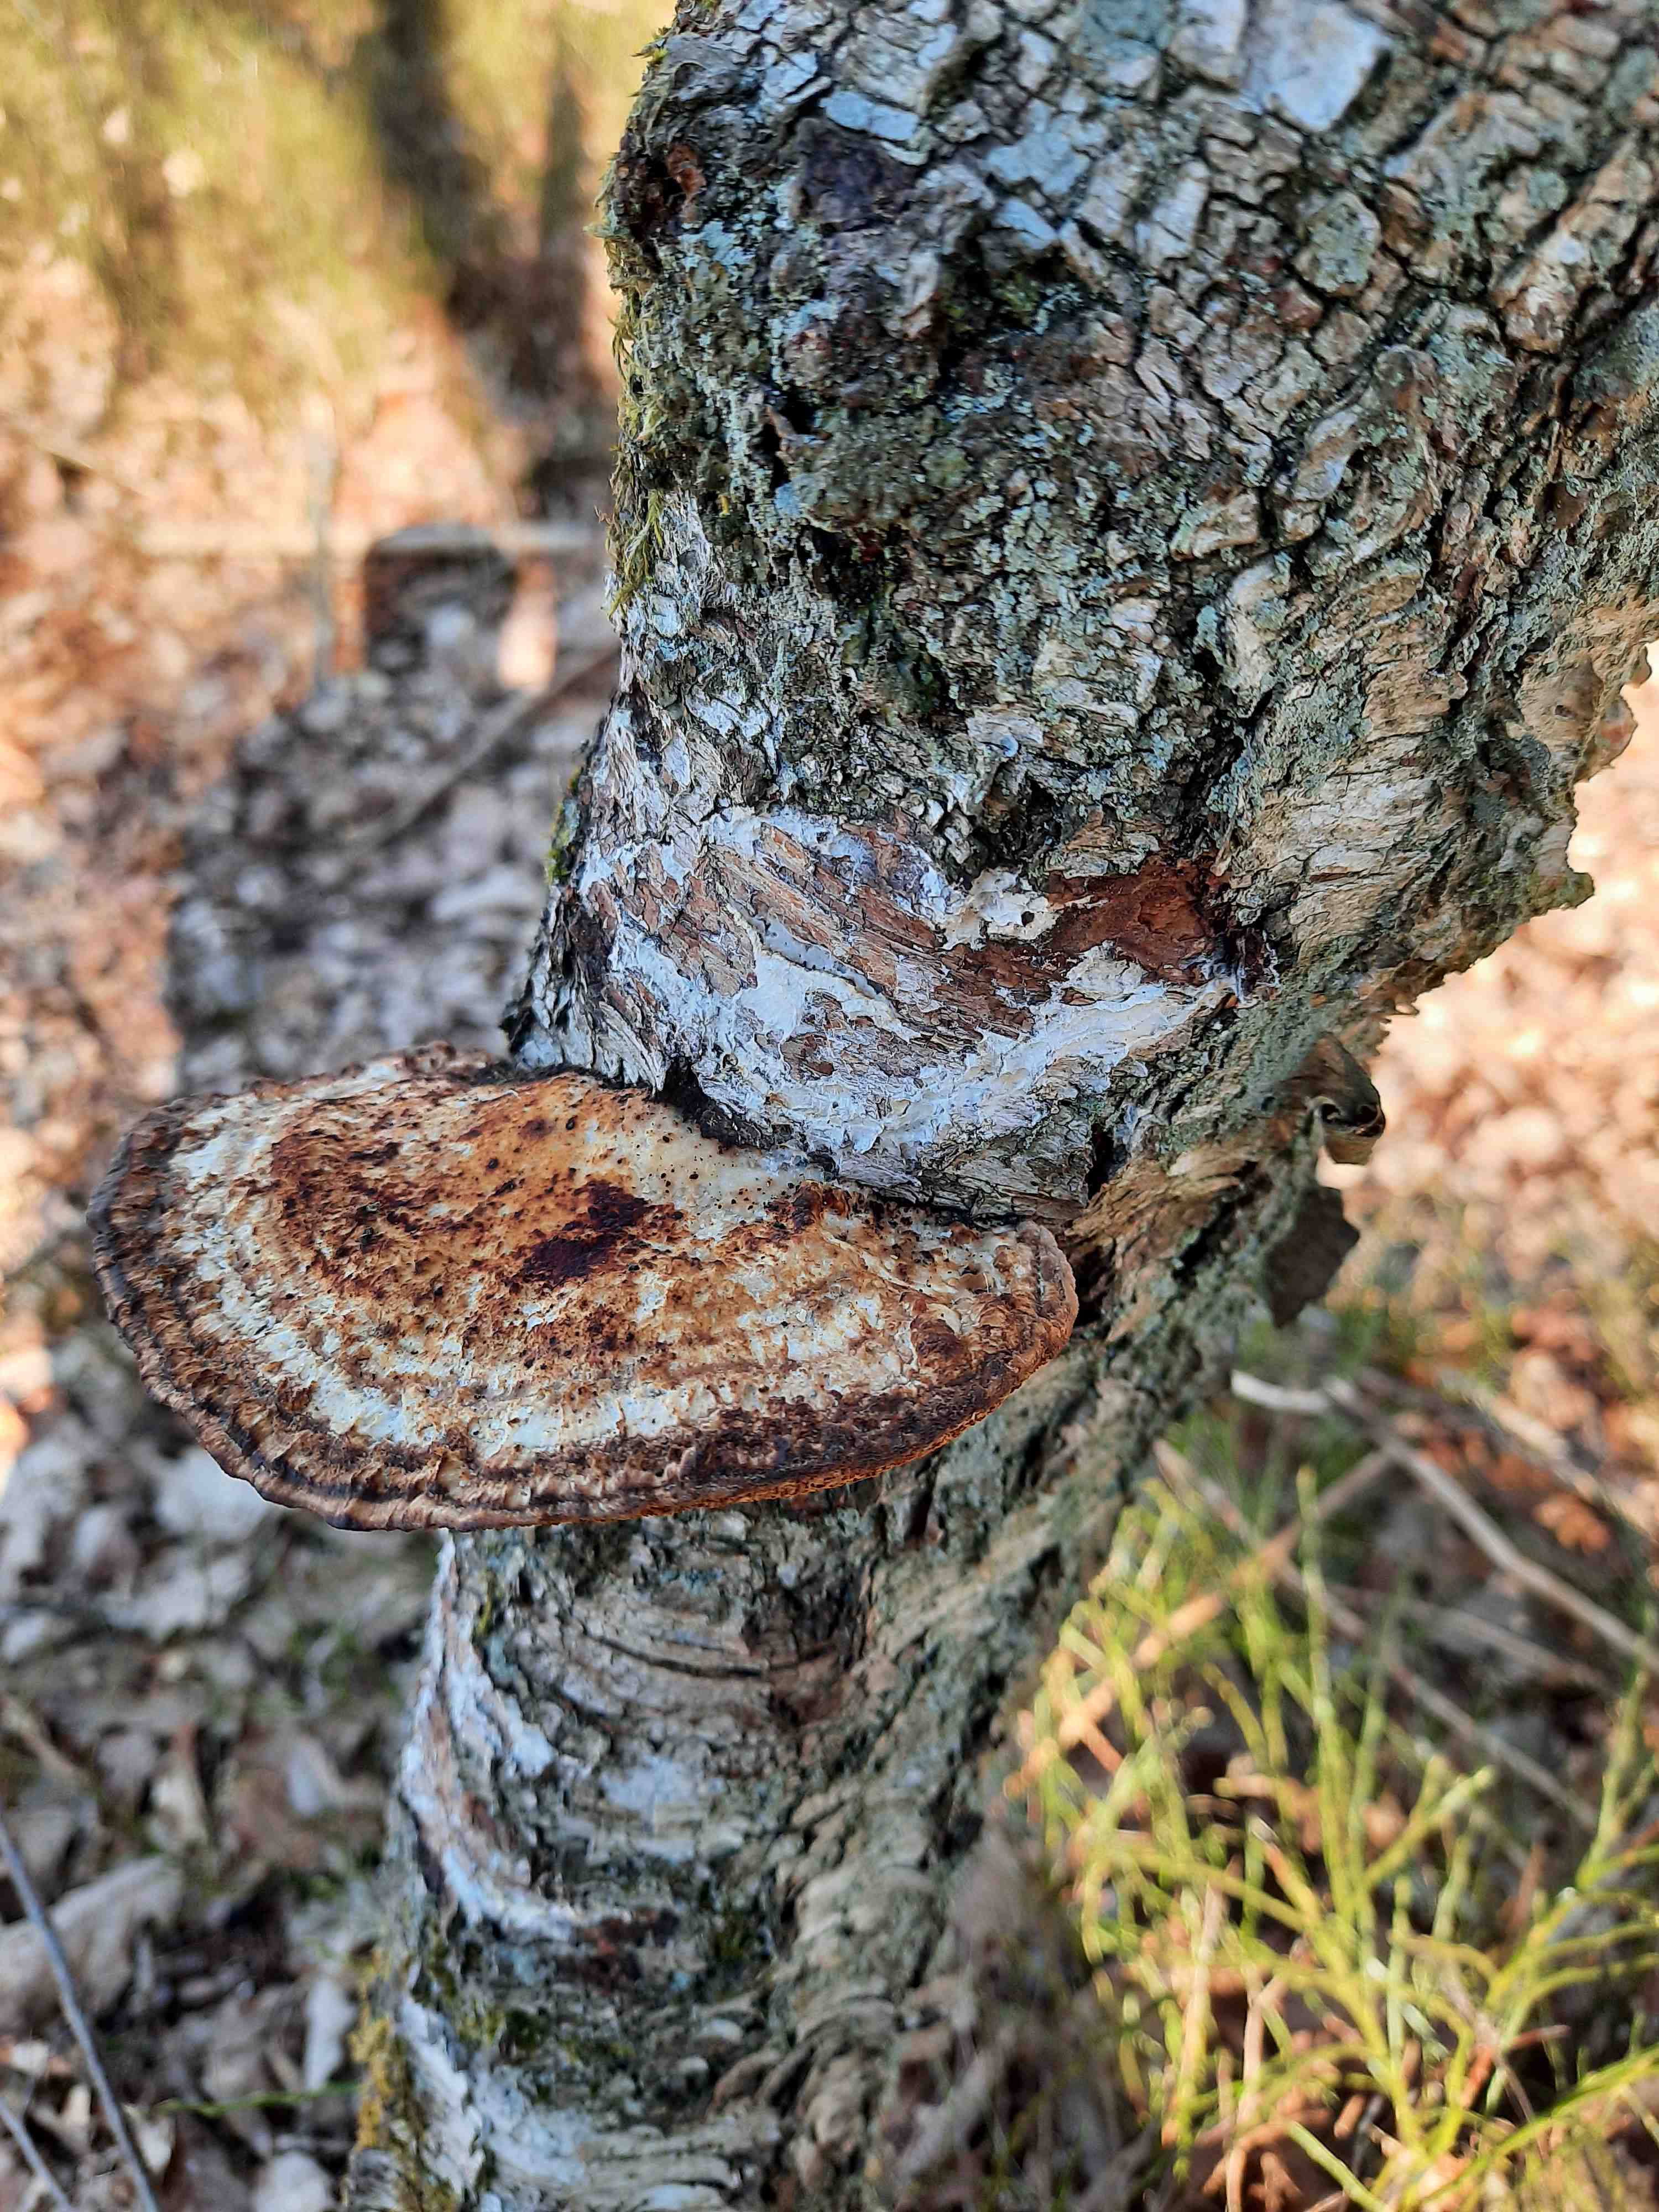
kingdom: Fungi
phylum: Basidiomycota
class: Agaricomycetes
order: Polyporales
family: Polyporaceae
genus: Daedaleopsis
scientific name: Daedaleopsis confragosa
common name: rødmende læderporesvamp
